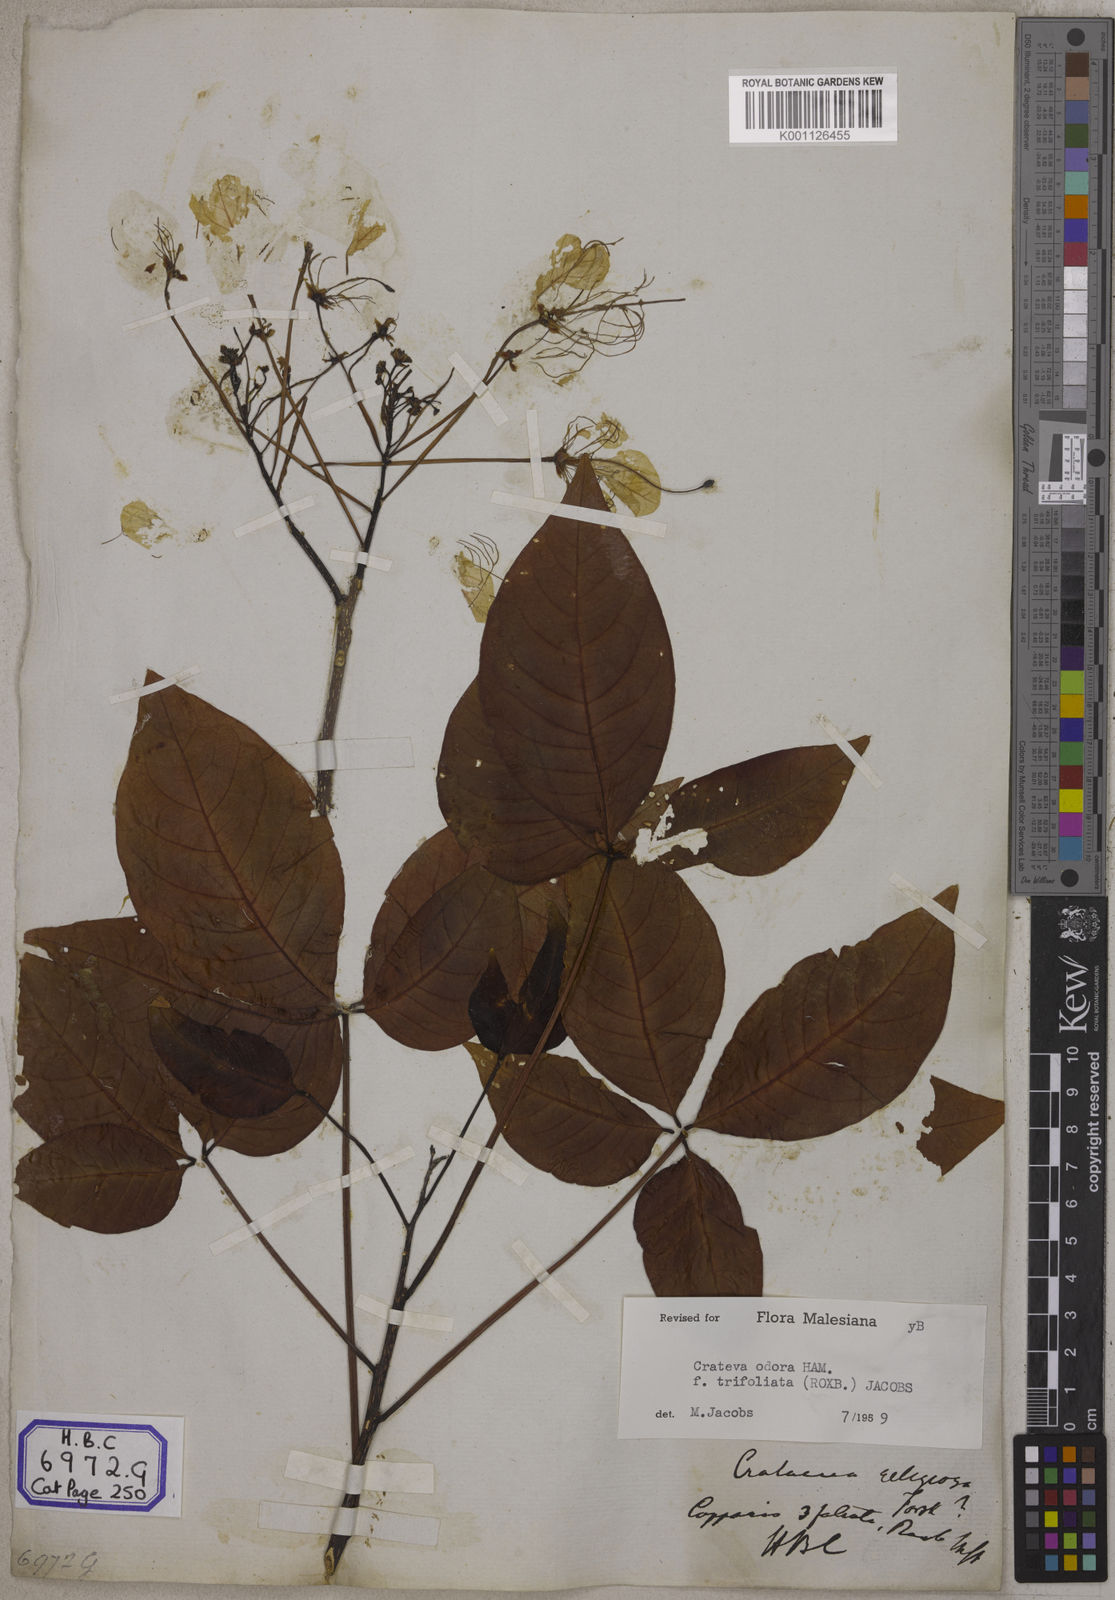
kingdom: Plantae
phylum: Tracheophyta
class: Magnoliopsida
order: Brassicales
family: Capparaceae
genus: Crateva
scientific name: Crateva religiosa
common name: March dalur
